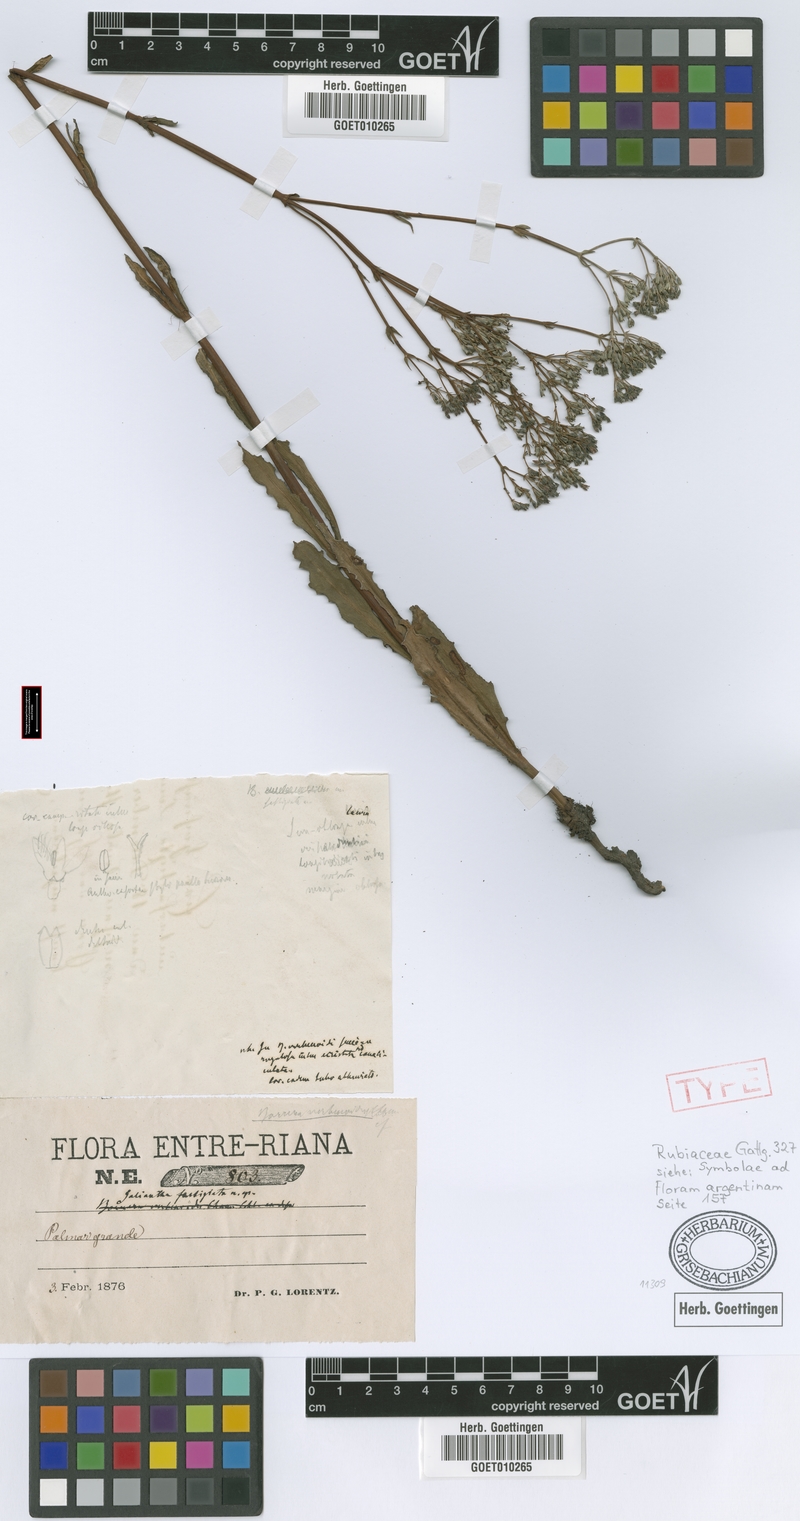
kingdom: Plantae
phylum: Tracheophyta
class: Magnoliopsida
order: Gentianales
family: Rubiaceae
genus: Galianthe
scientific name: Galianthe fastigiata
